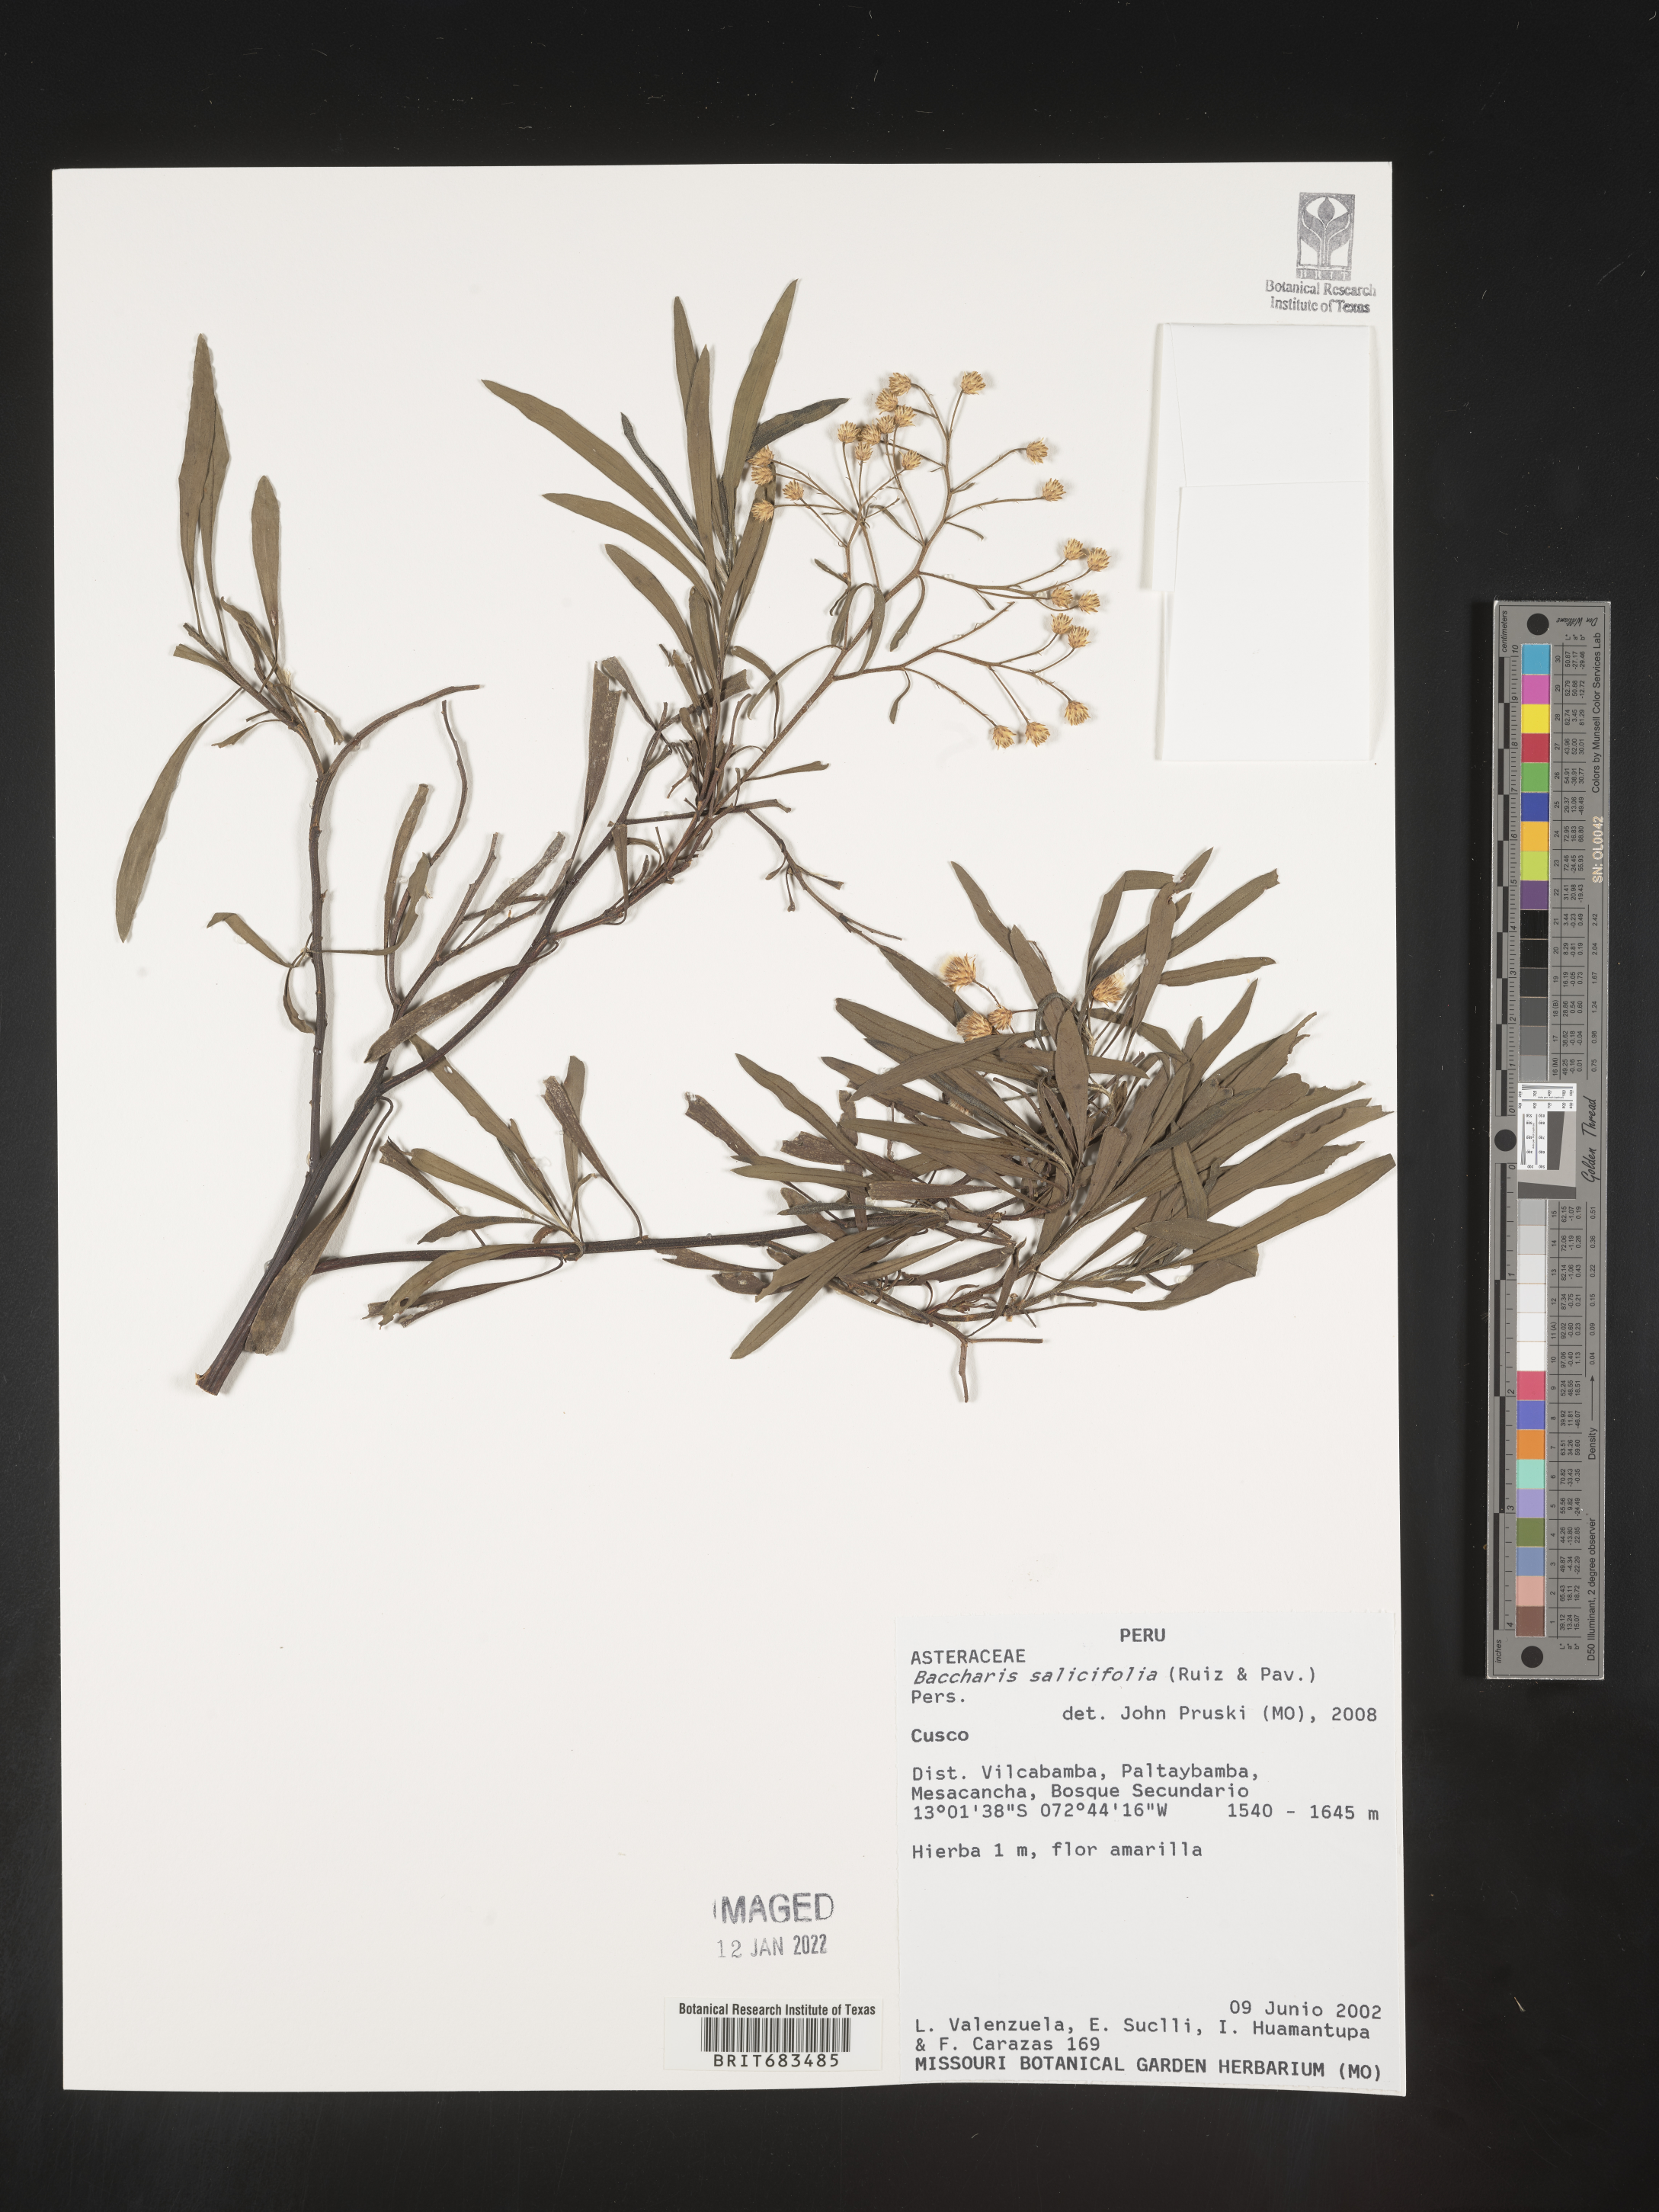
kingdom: Plantae
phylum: Tracheophyta
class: Magnoliopsida
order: Asterales
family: Asteraceae
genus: Baccharis
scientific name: Baccharis
